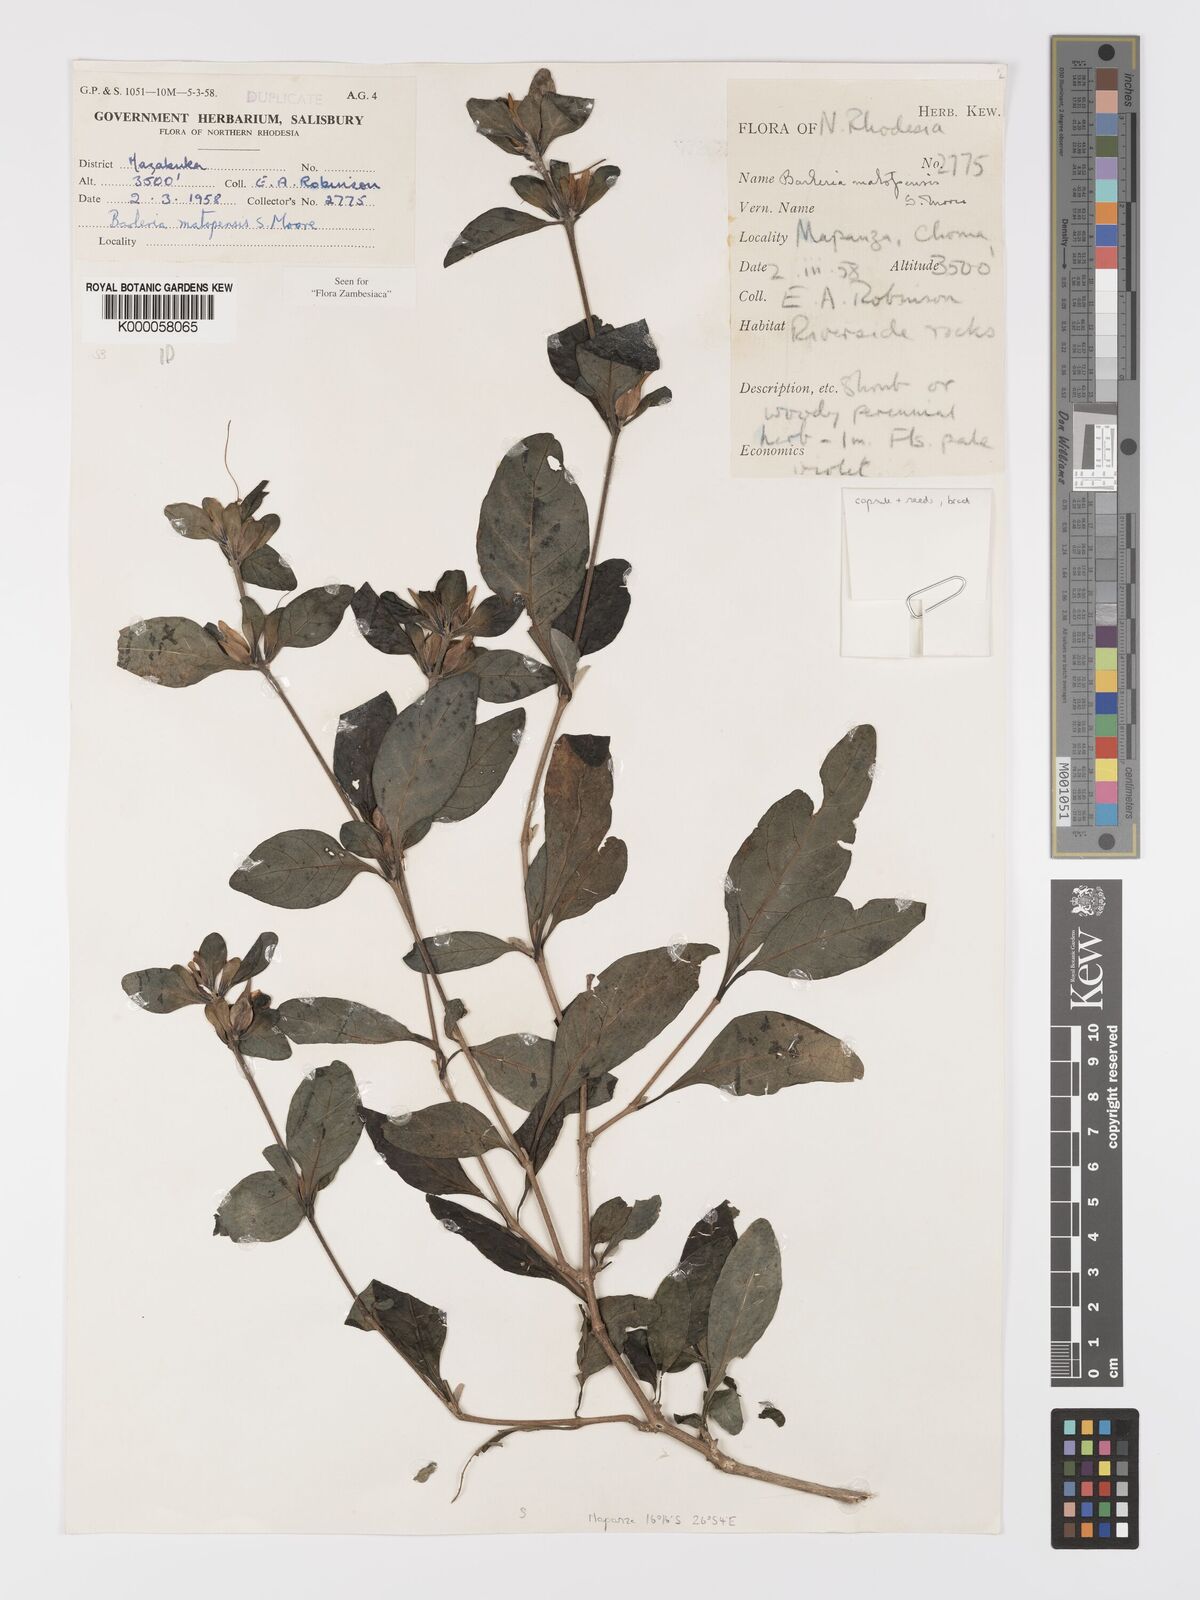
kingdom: Plantae
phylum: Tracheophyta
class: Magnoliopsida
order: Lamiales
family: Acanthaceae
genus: Barleria
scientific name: Barleria matopensis
